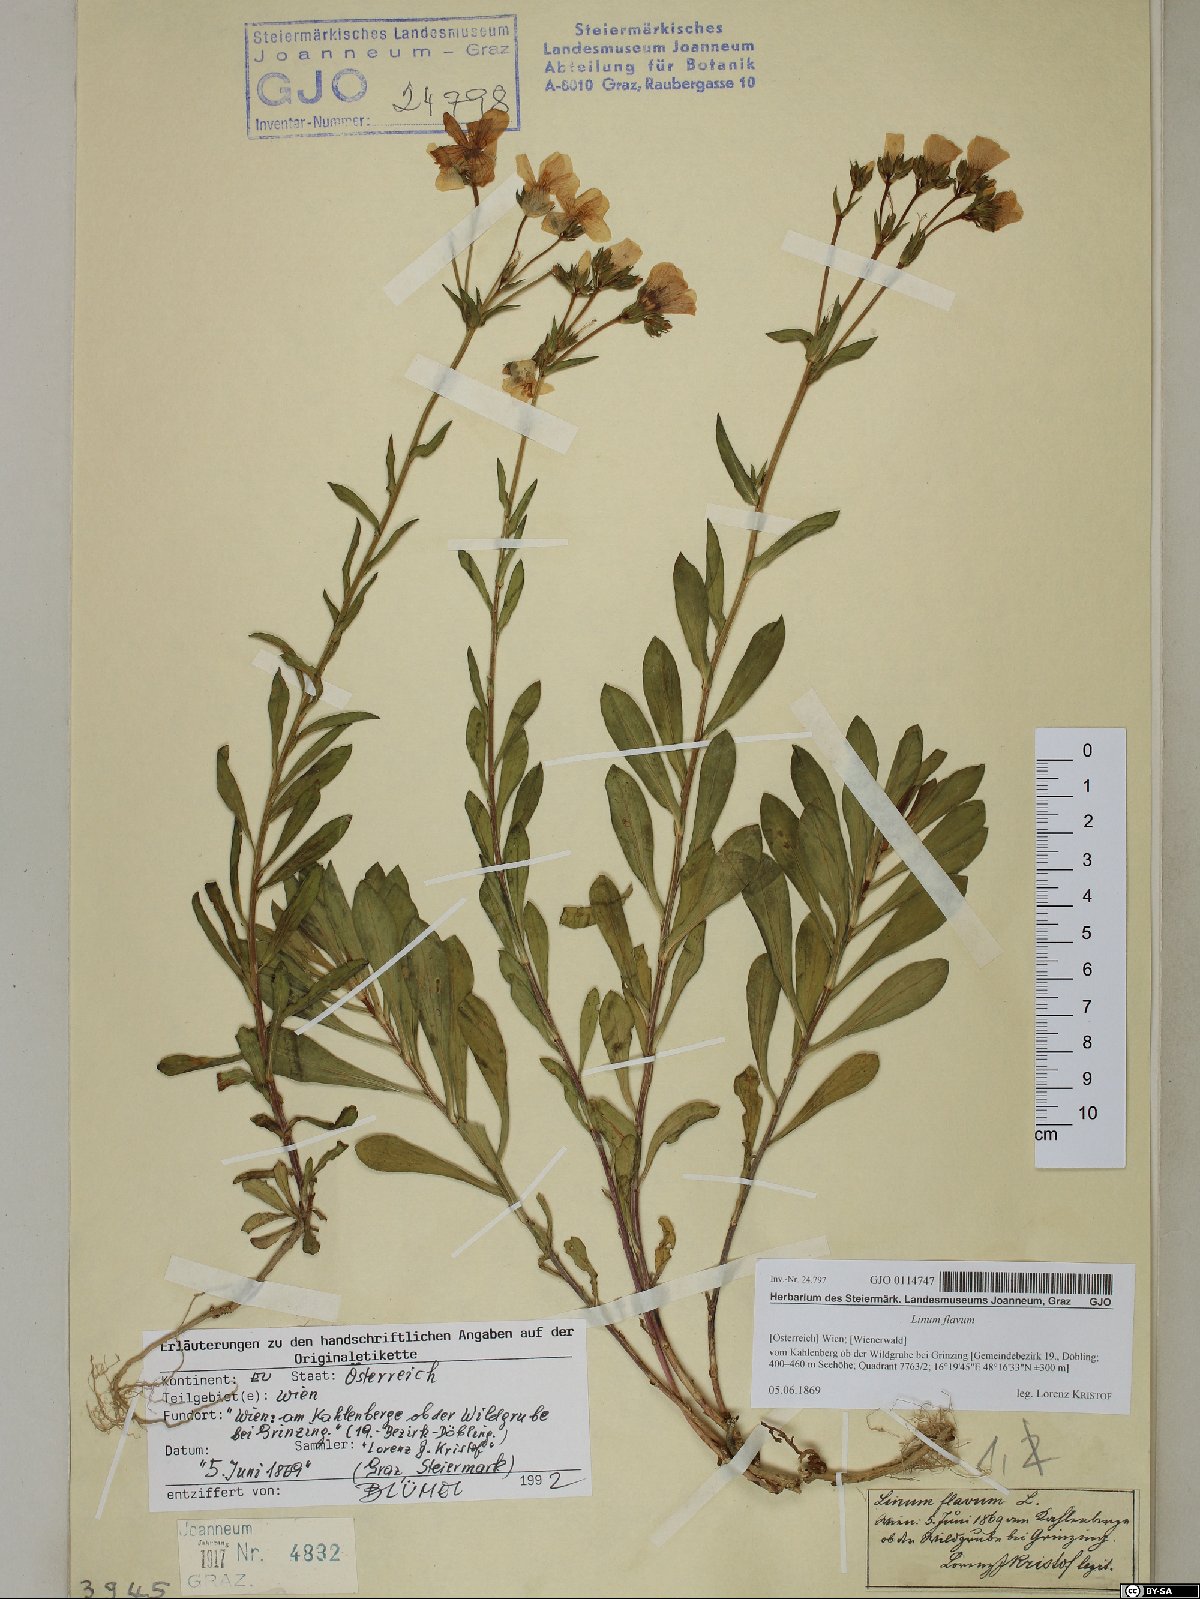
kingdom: Plantae
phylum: Tracheophyta
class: Magnoliopsida
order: Malpighiales
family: Linaceae
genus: Linum
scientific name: Linum flavum
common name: Yellow flax
